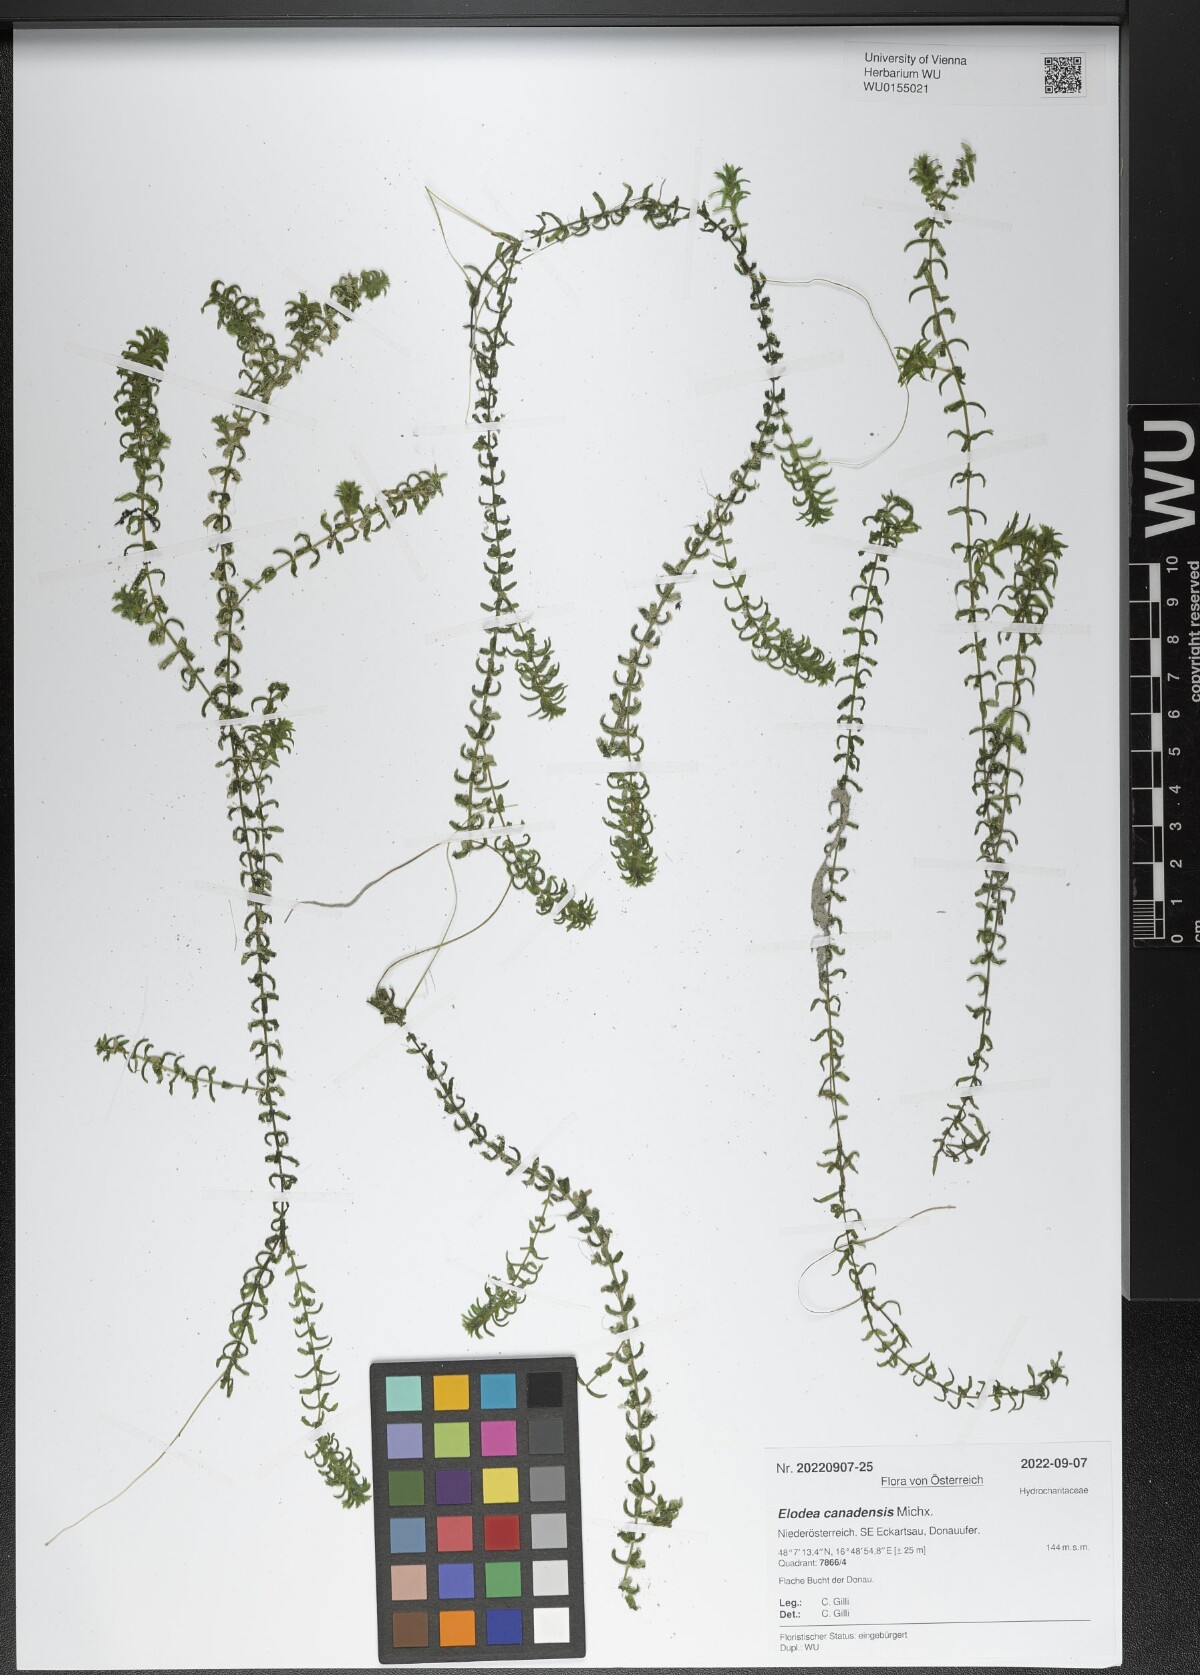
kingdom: Plantae
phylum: Tracheophyta
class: Liliopsida
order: Alismatales
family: Hydrocharitaceae
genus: Elodea
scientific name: Elodea nuttallii
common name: Nuttall's waterweed
